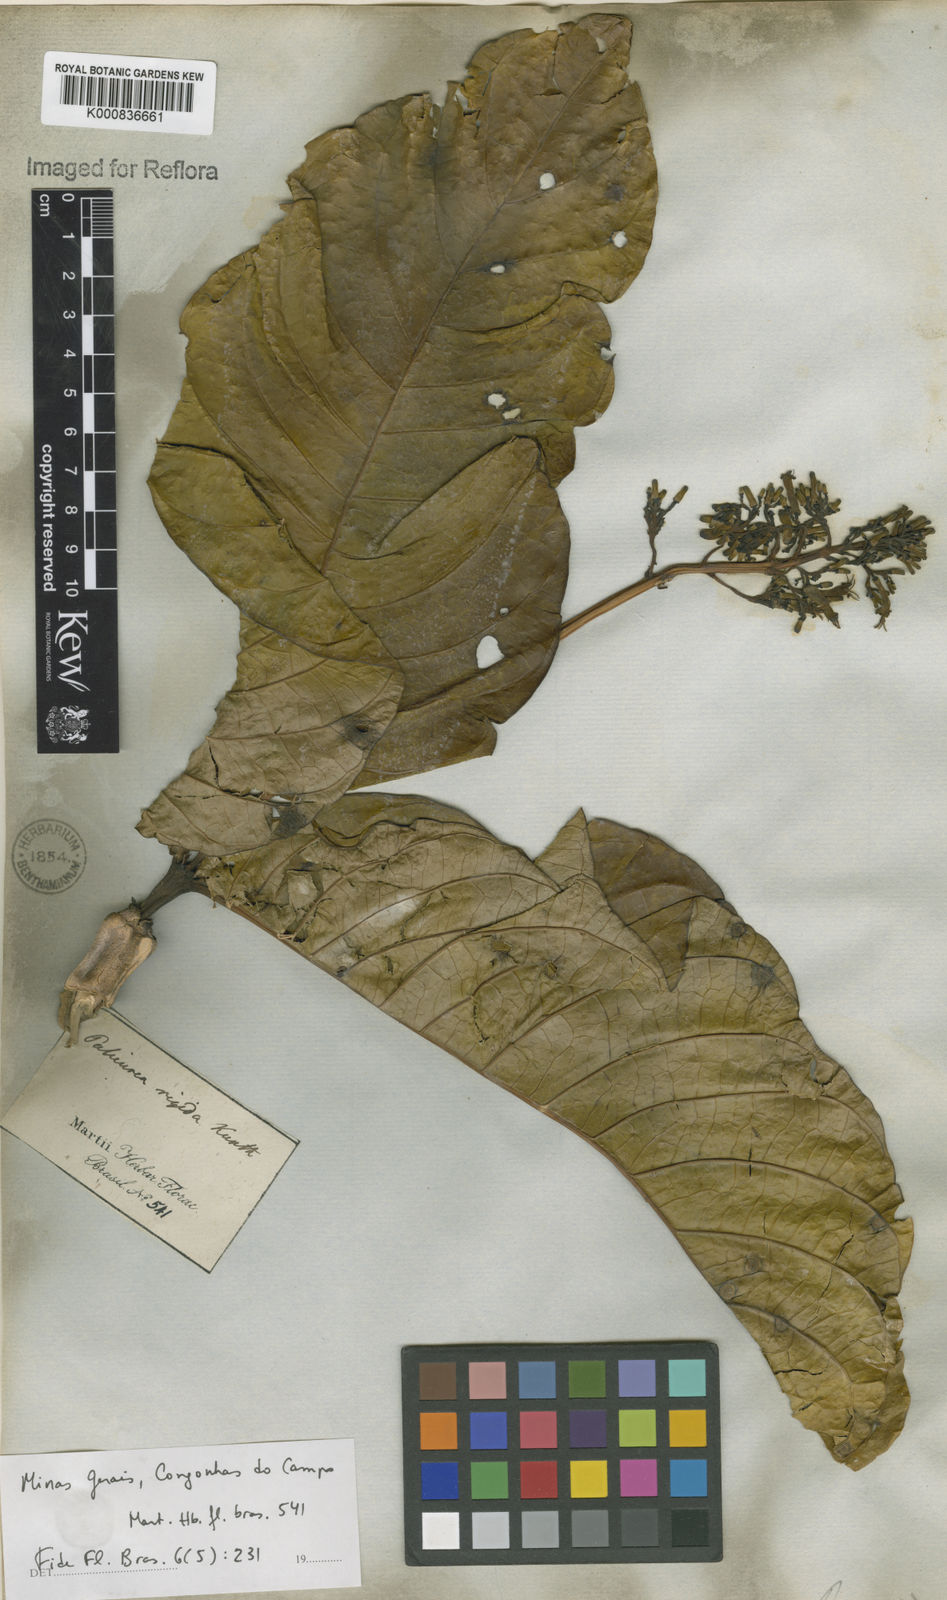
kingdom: Plantae
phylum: Tracheophyta
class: Magnoliopsida
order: Gentianales
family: Rubiaceae
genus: Palicourea
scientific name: Palicourea rigida
